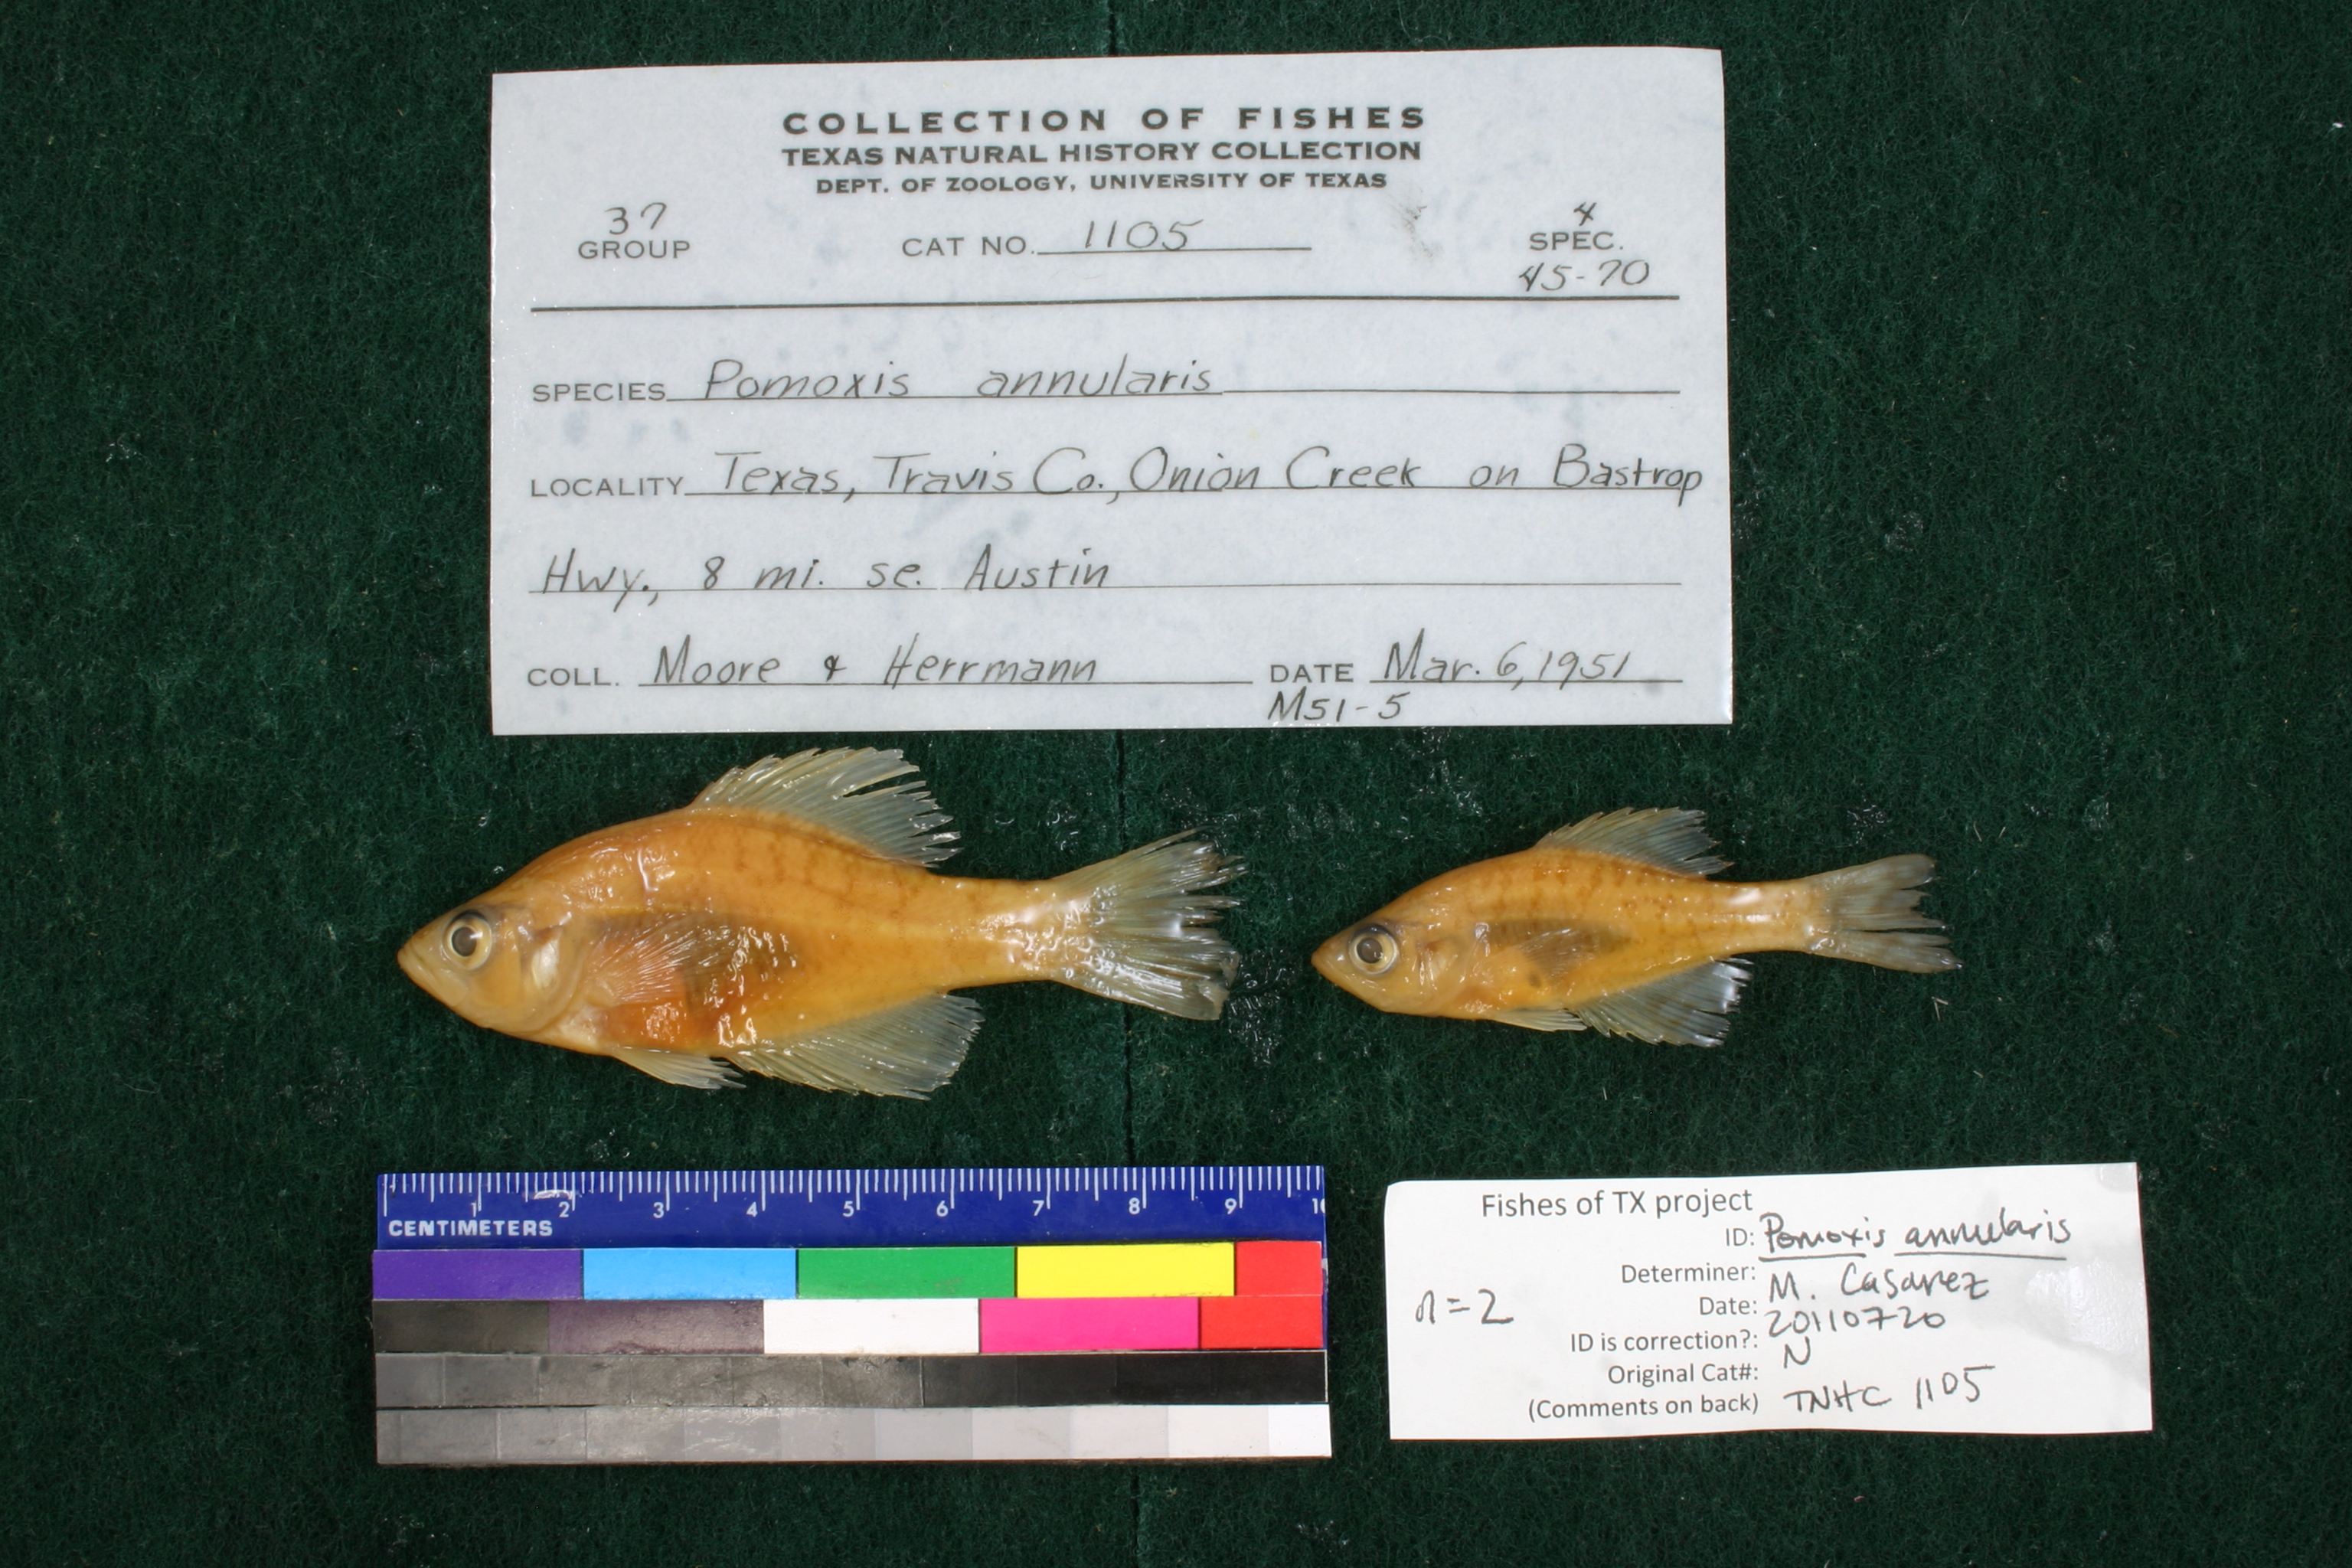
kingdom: Animalia
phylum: Chordata
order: Perciformes
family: Centrarchidae
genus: Pomoxis
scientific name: Pomoxis annularis
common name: White crappie
